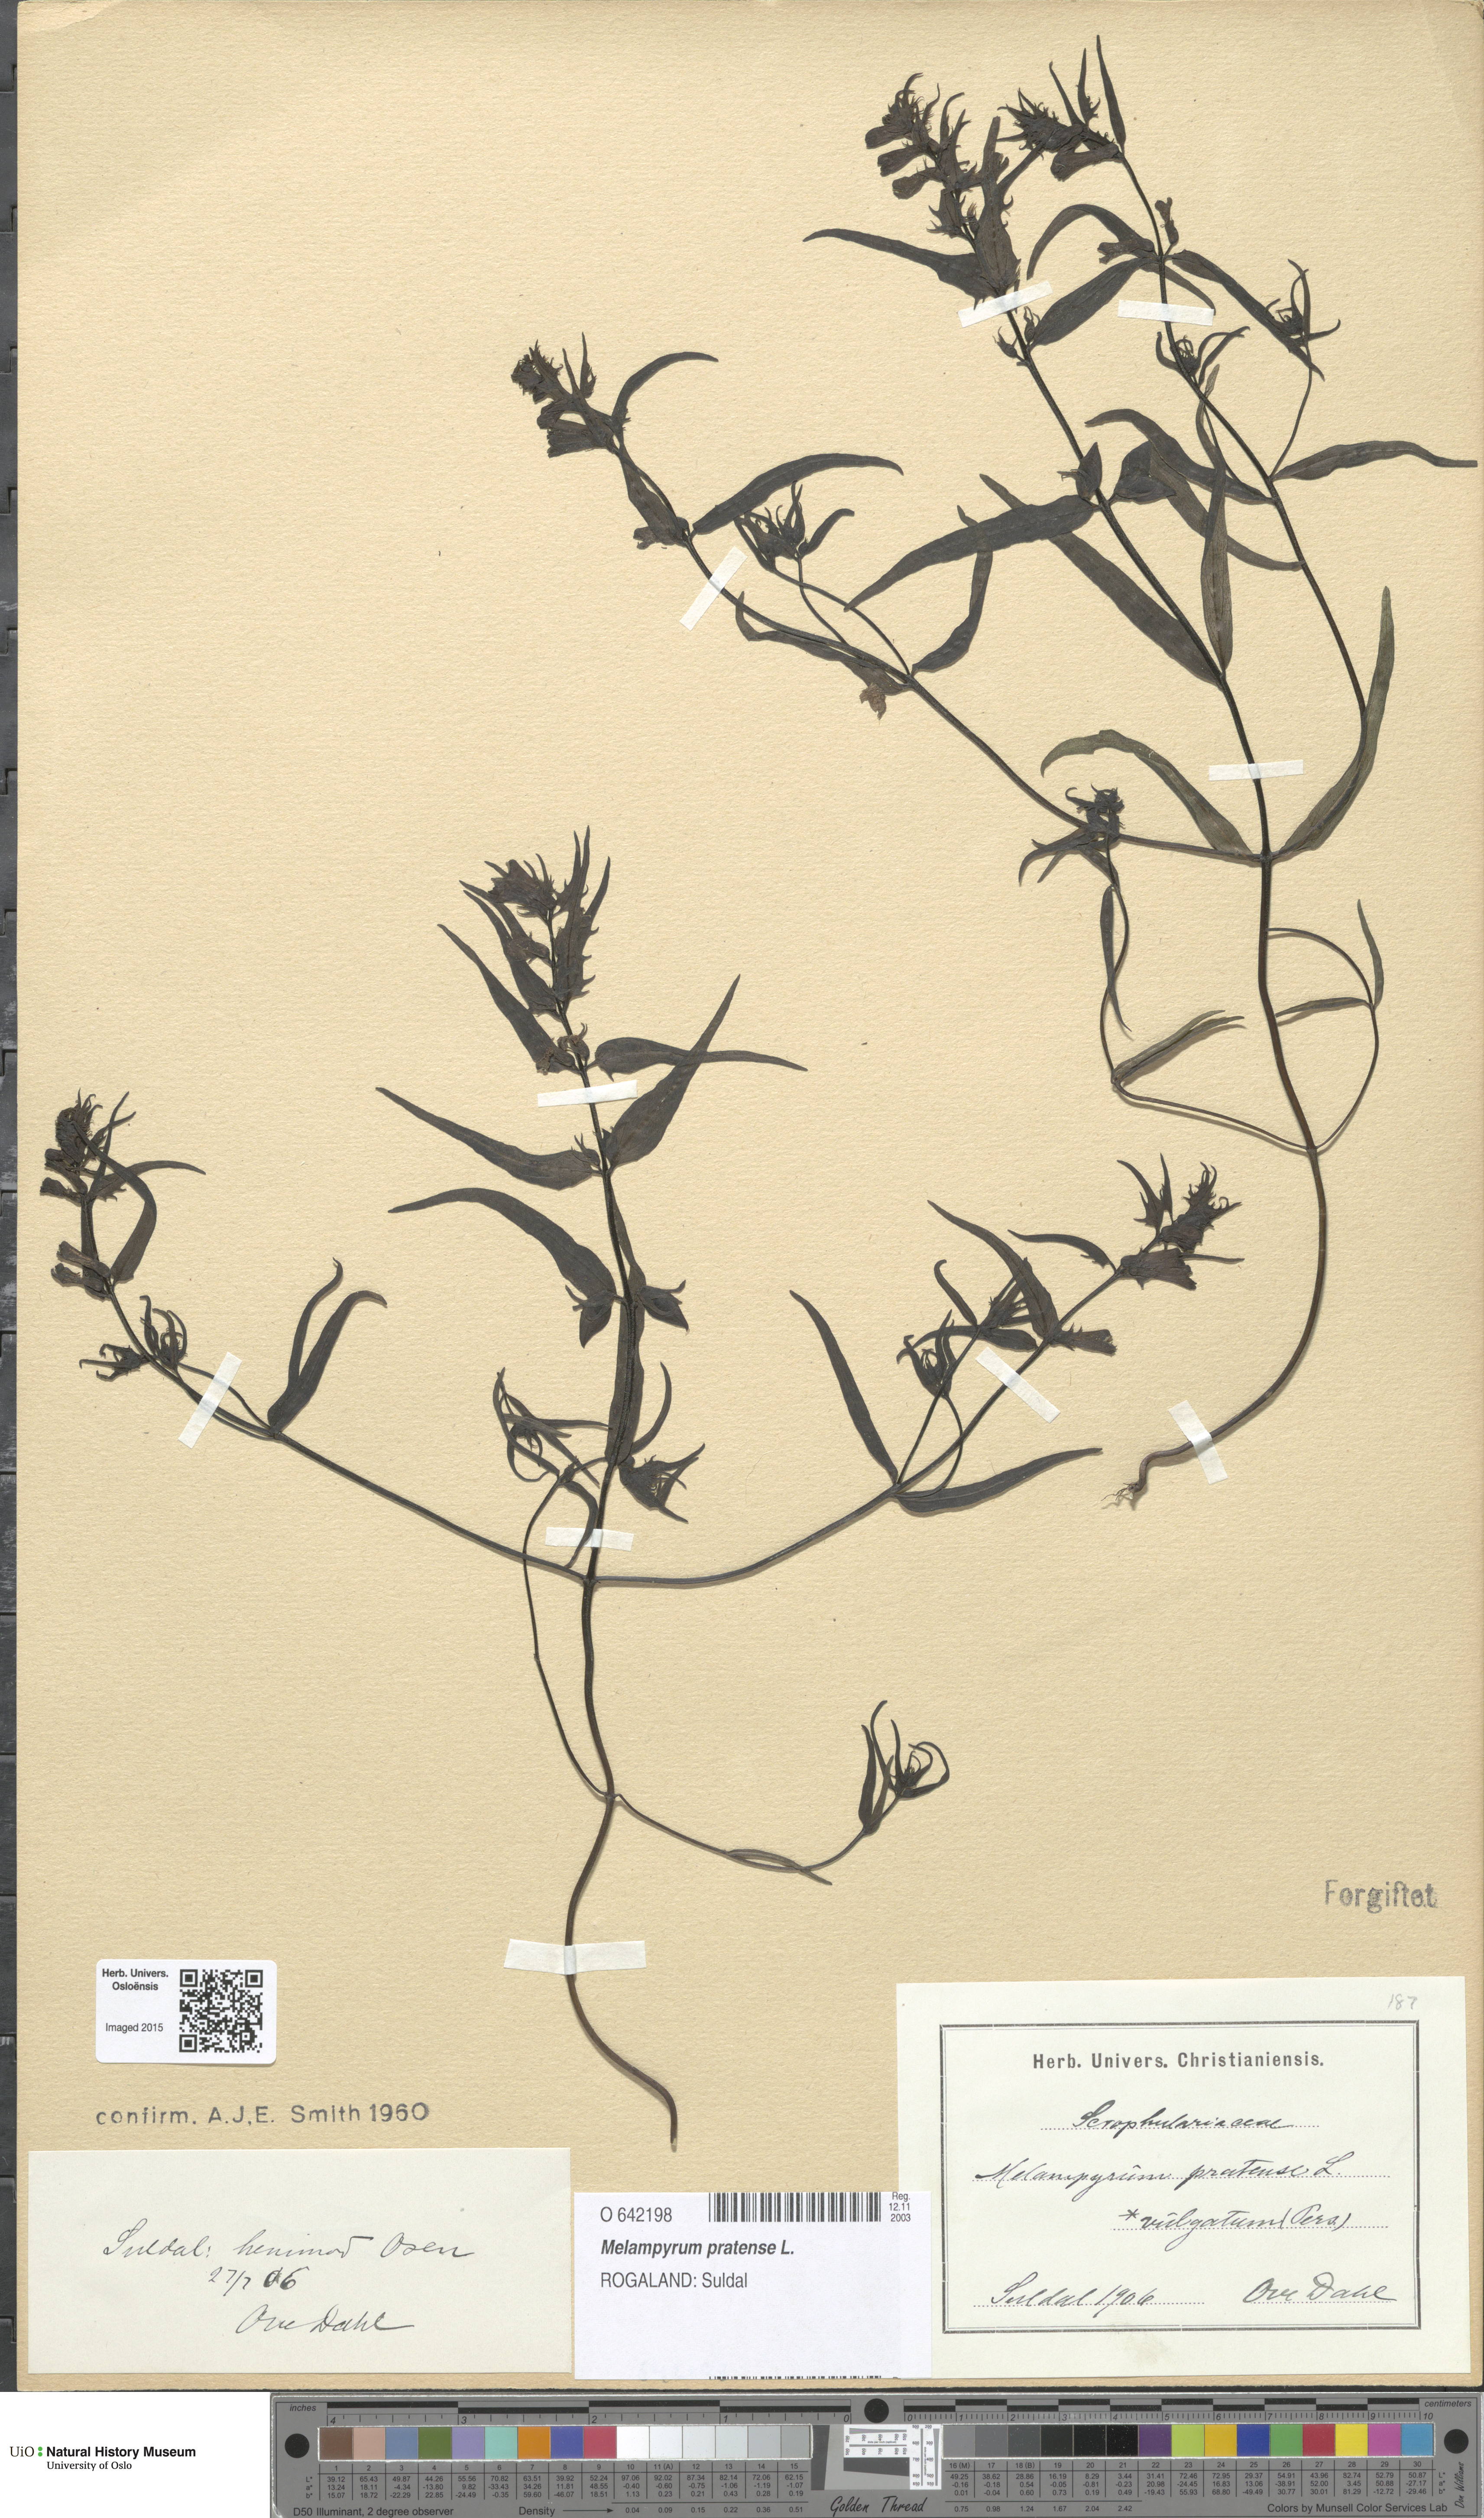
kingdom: Plantae
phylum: Tracheophyta
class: Magnoliopsida
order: Lamiales
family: Orobanchaceae
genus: Melampyrum
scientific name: Melampyrum pratense
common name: Common cow-wheat
